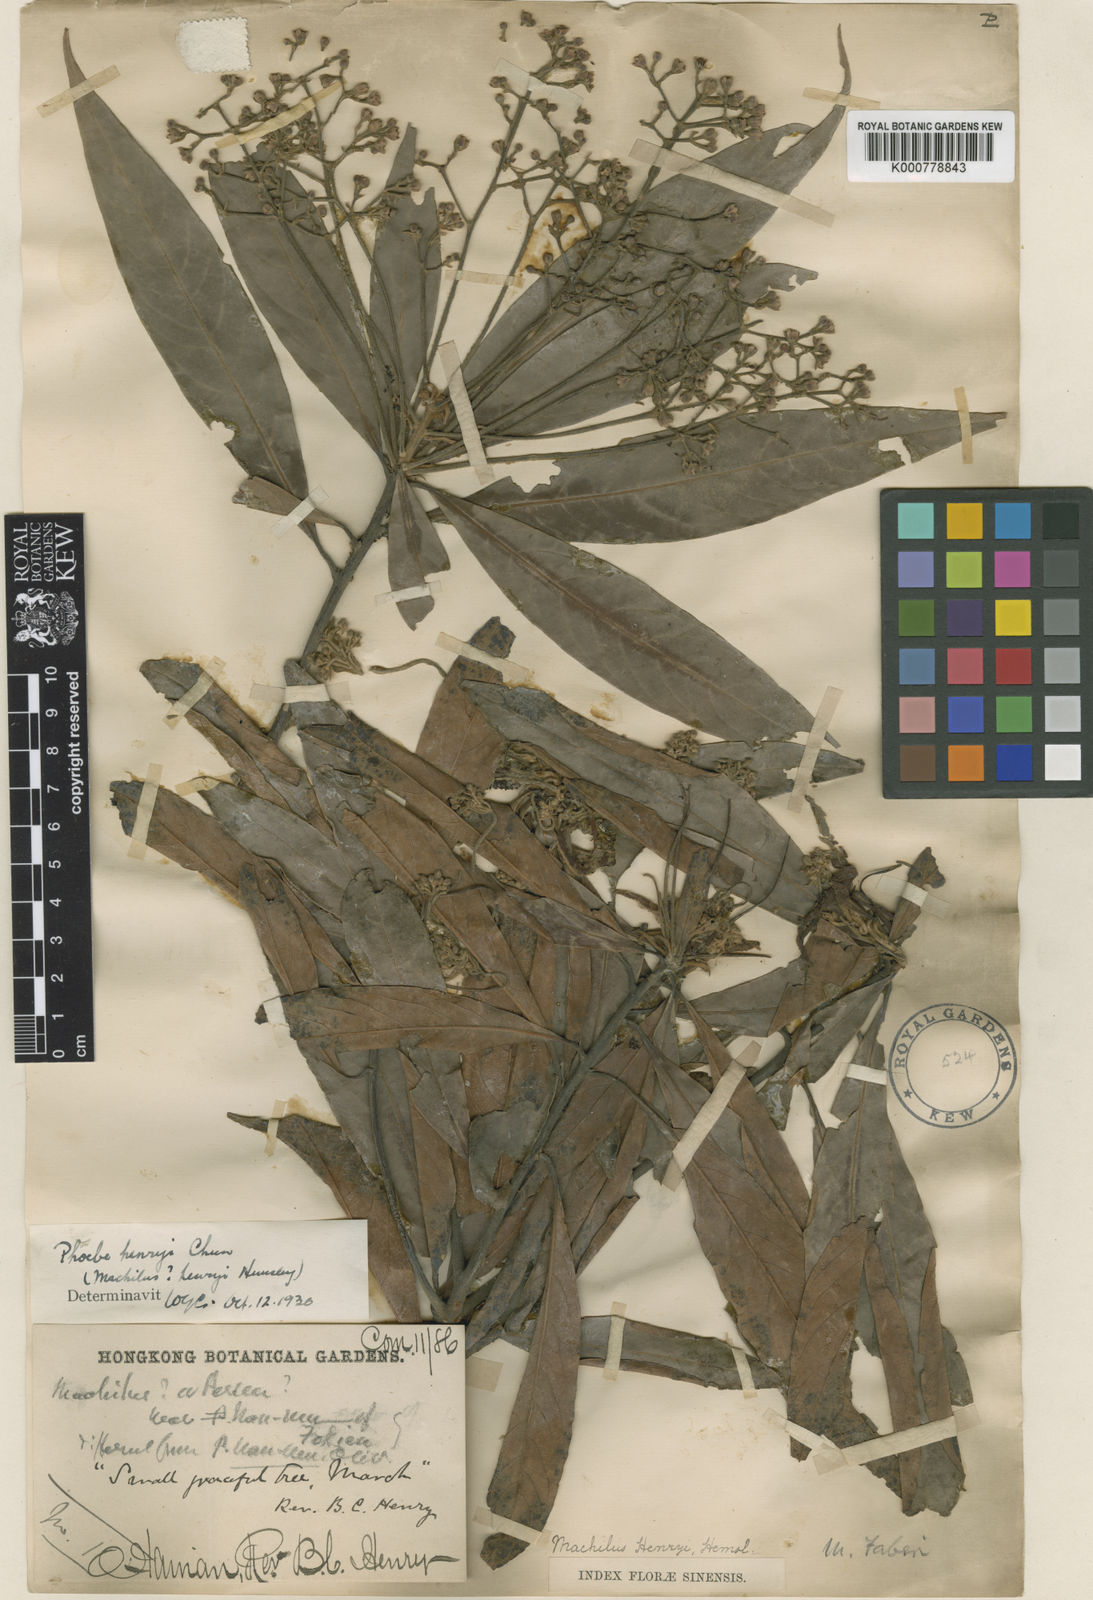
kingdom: Plantae
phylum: Tracheophyta
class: Magnoliopsida
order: Laurales
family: Lauraceae
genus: Phoebe
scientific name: Phoebe
